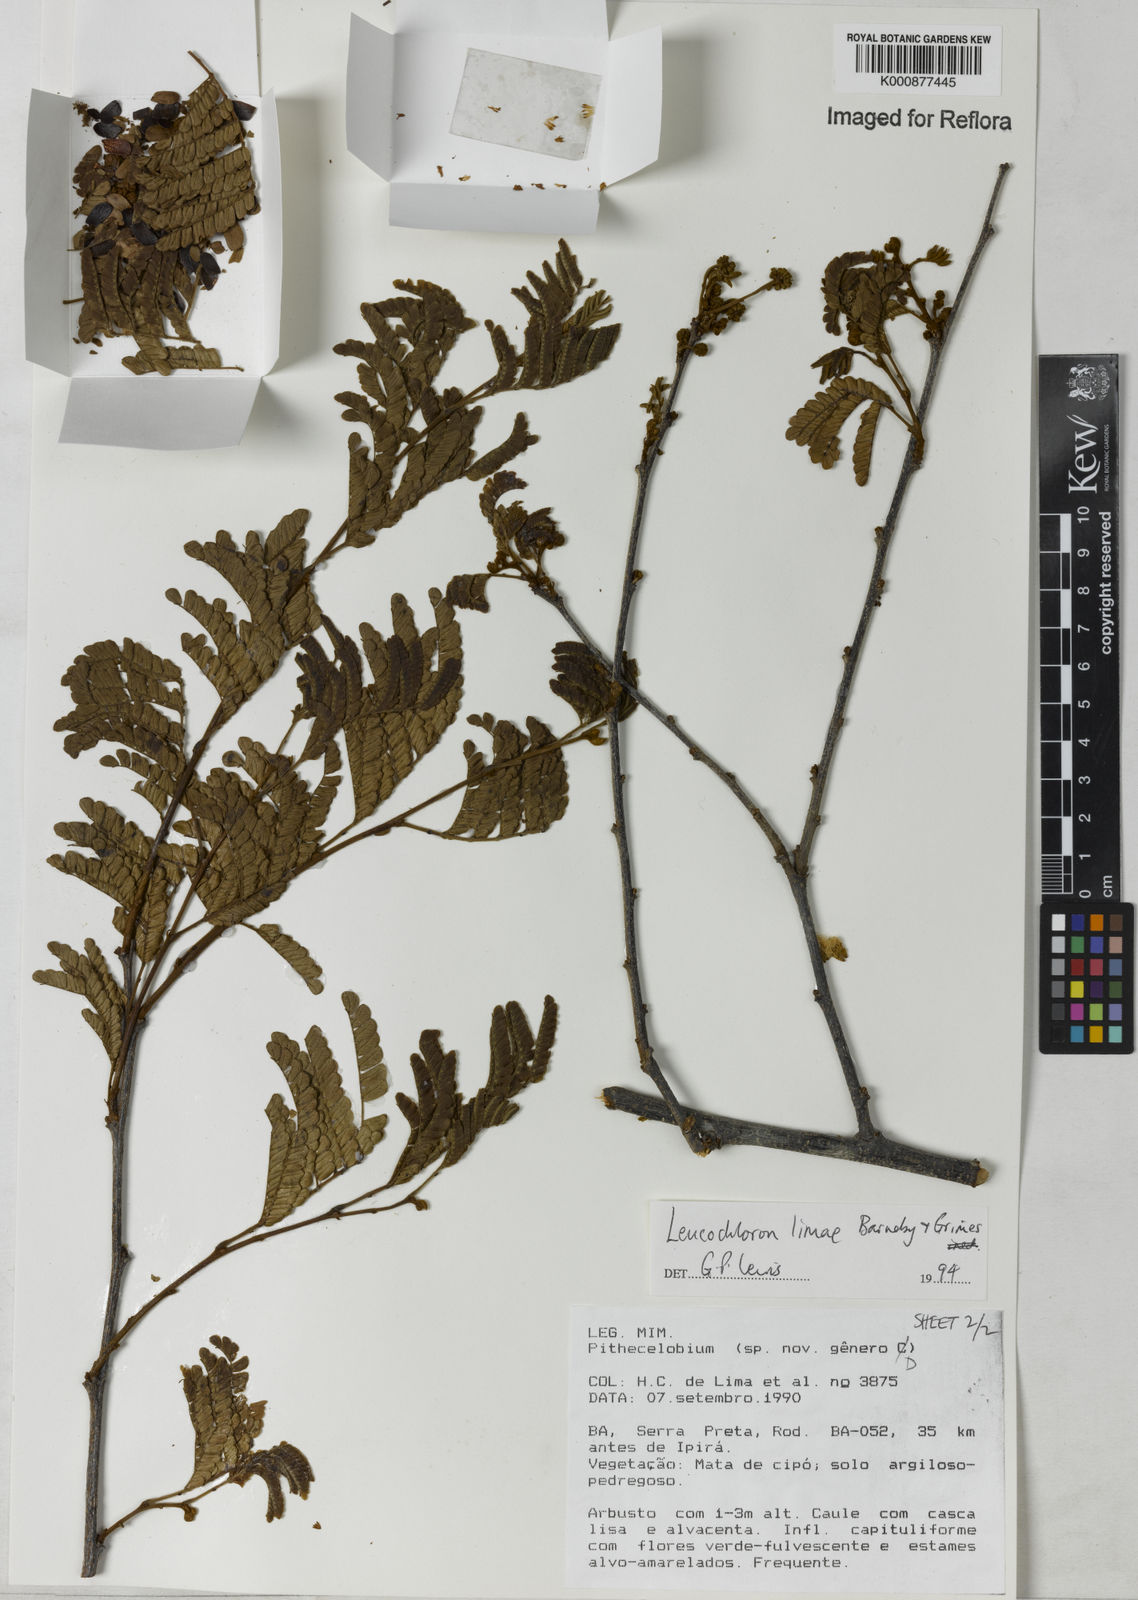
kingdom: Plantae
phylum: Tracheophyta
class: Magnoliopsida
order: Fabales
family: Fabaceae
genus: Leucochloron
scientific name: Leucochloron limae
